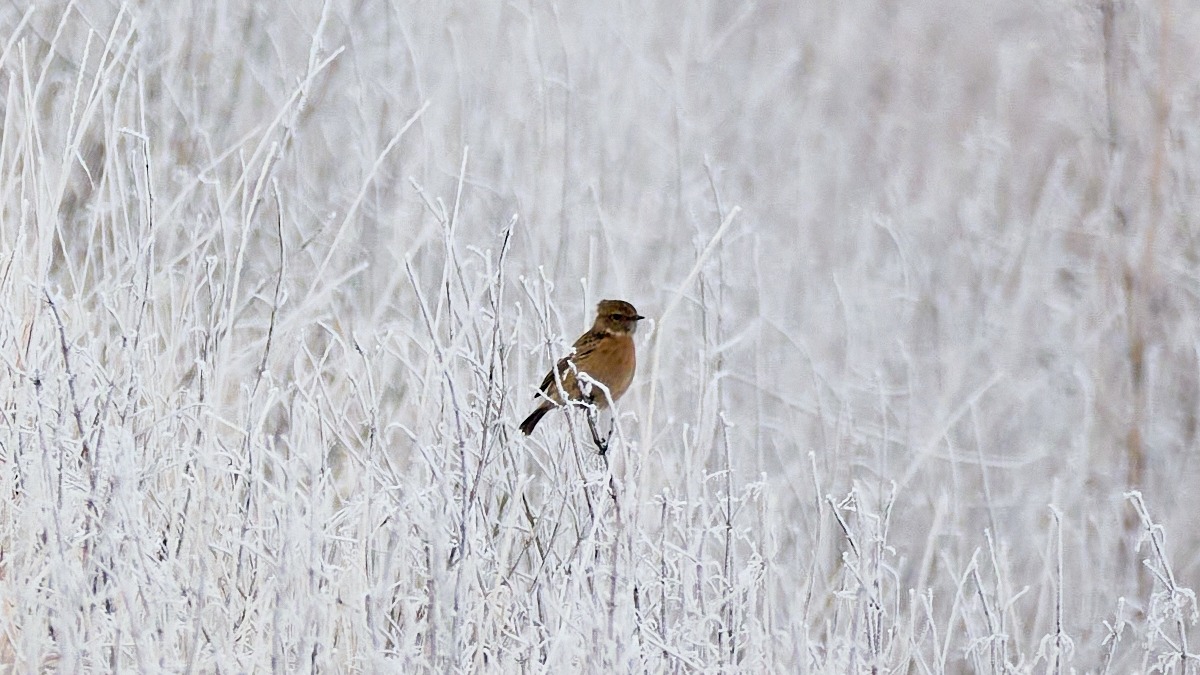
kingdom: Animalia
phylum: Chordata
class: Aves
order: Passeriformes
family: Muscicapidae
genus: Saxicola
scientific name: Saxicola rubicola
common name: Sortstrubet bynkefugl
